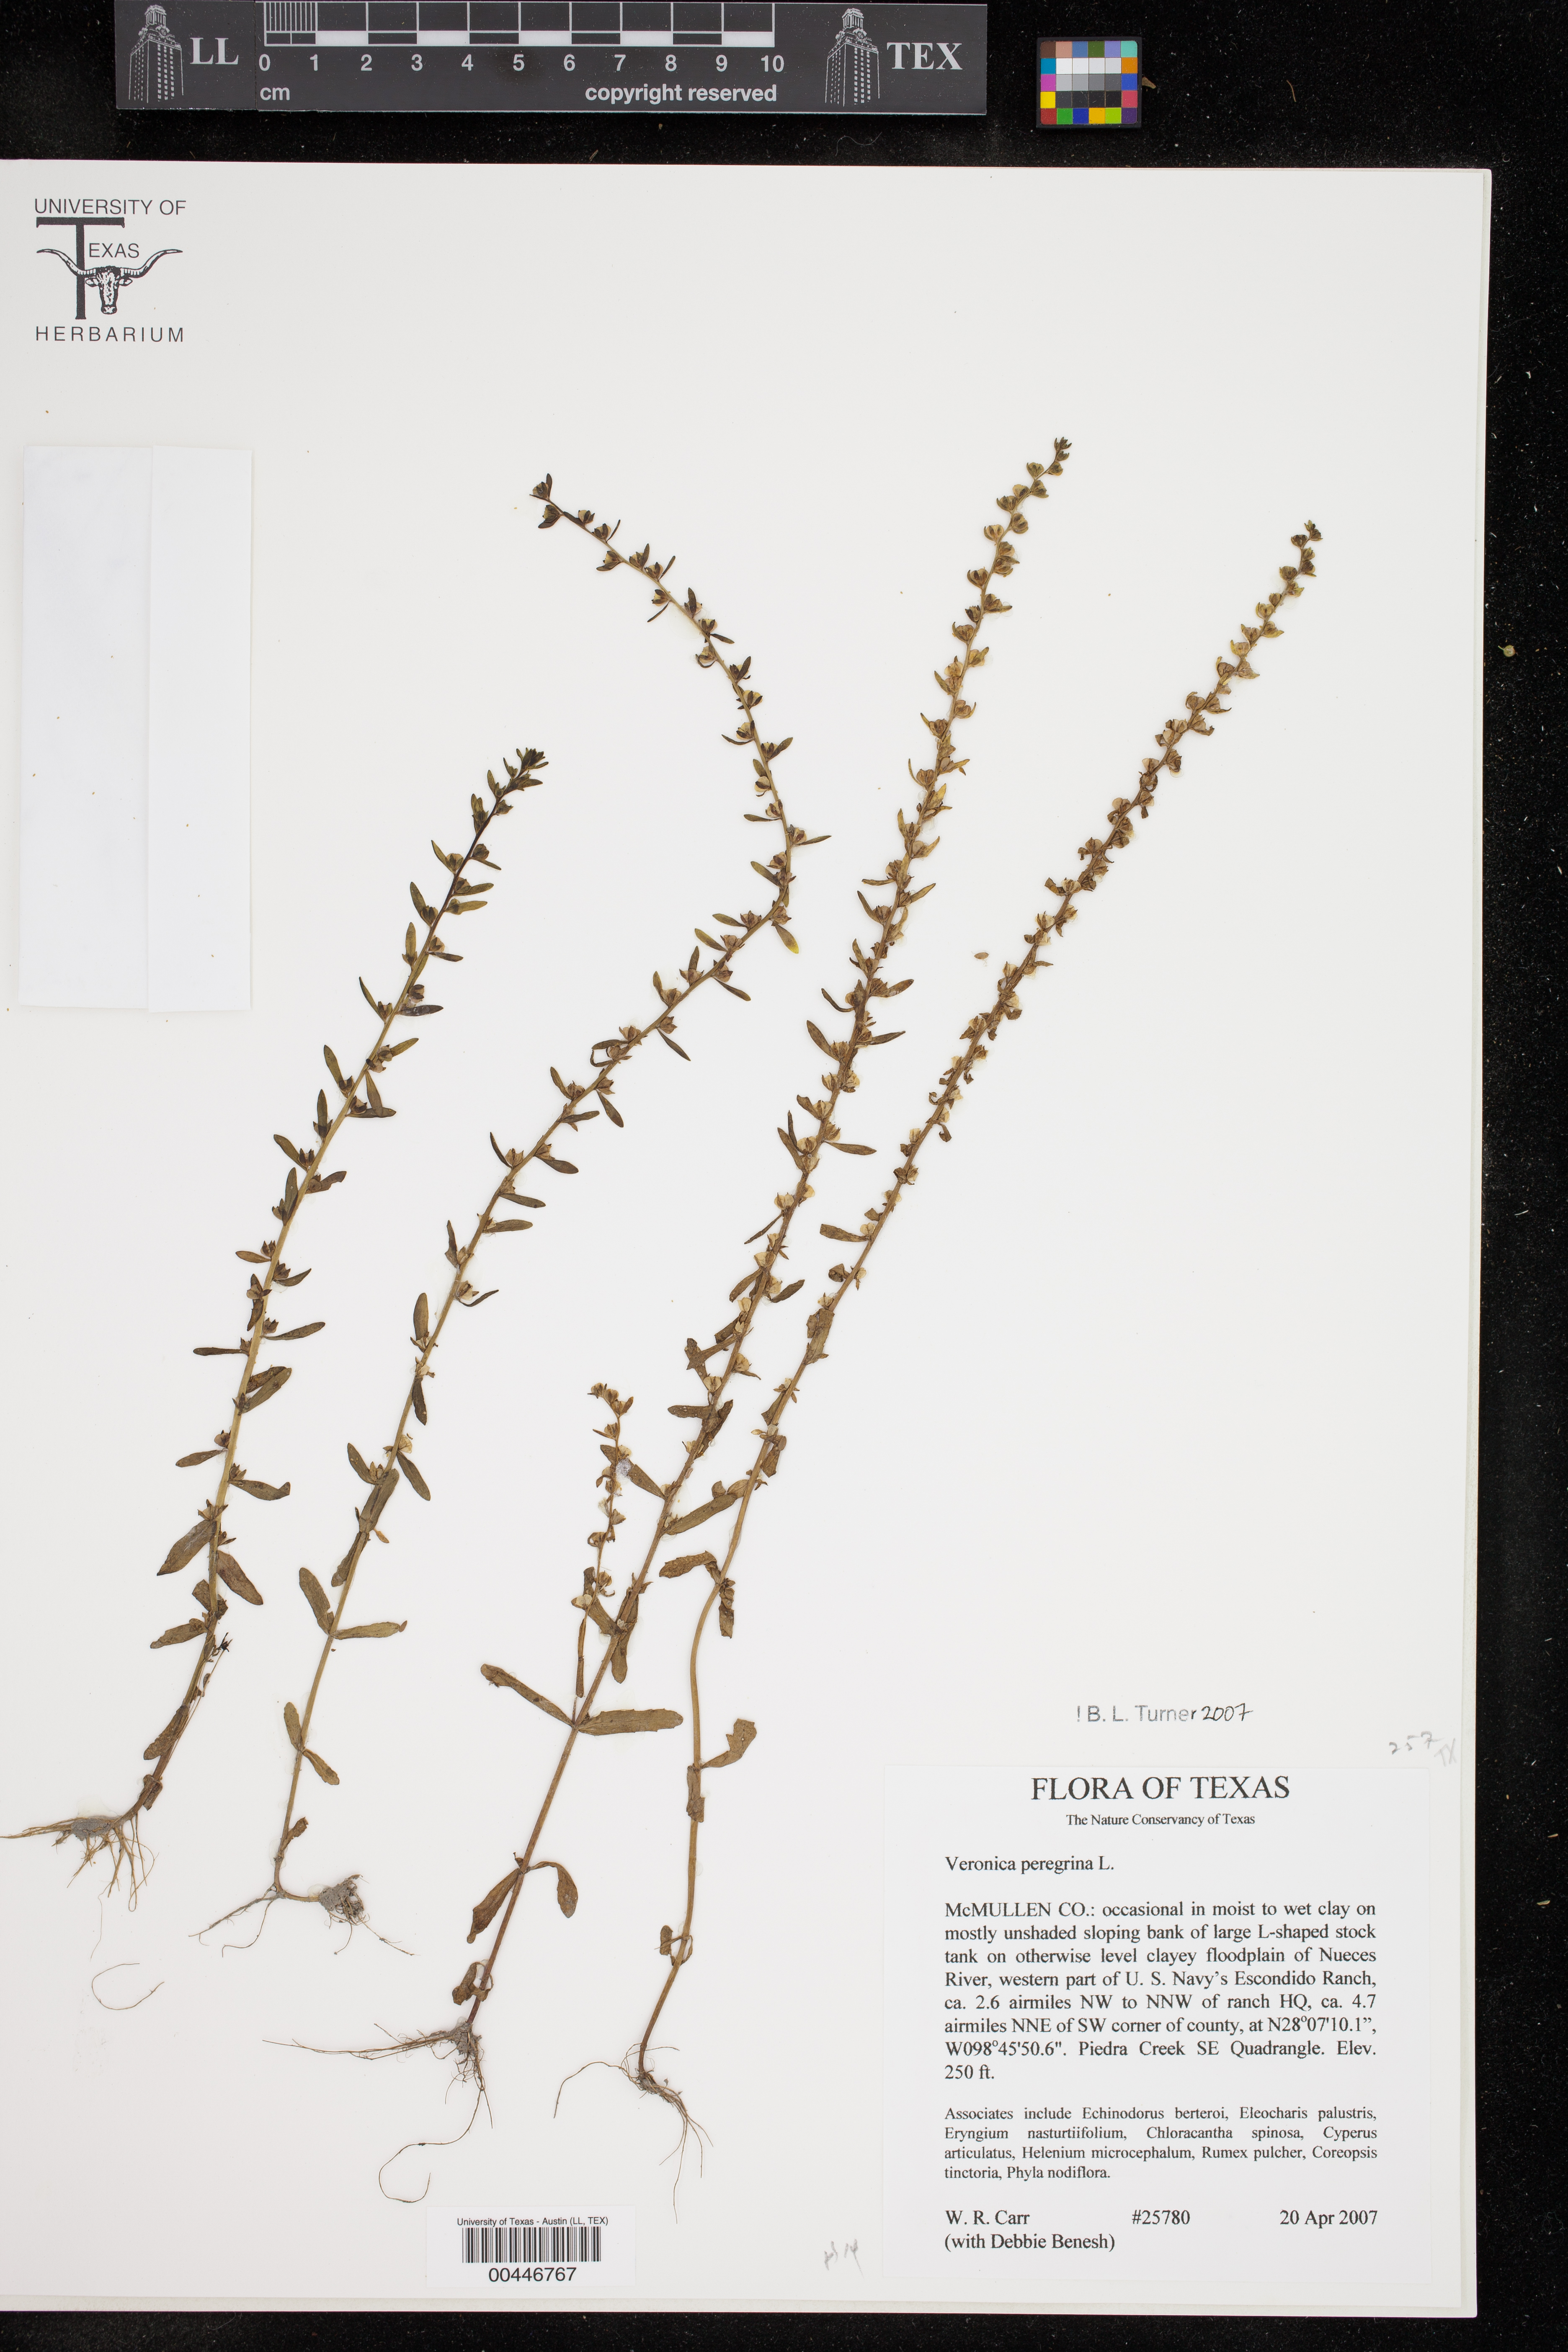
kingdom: Plantae
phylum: Tracheophyta
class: Magnoliopsida
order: Lamiales
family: Plantaginaceae
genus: Veronica
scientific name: Veronica peregrina
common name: Neckweed
